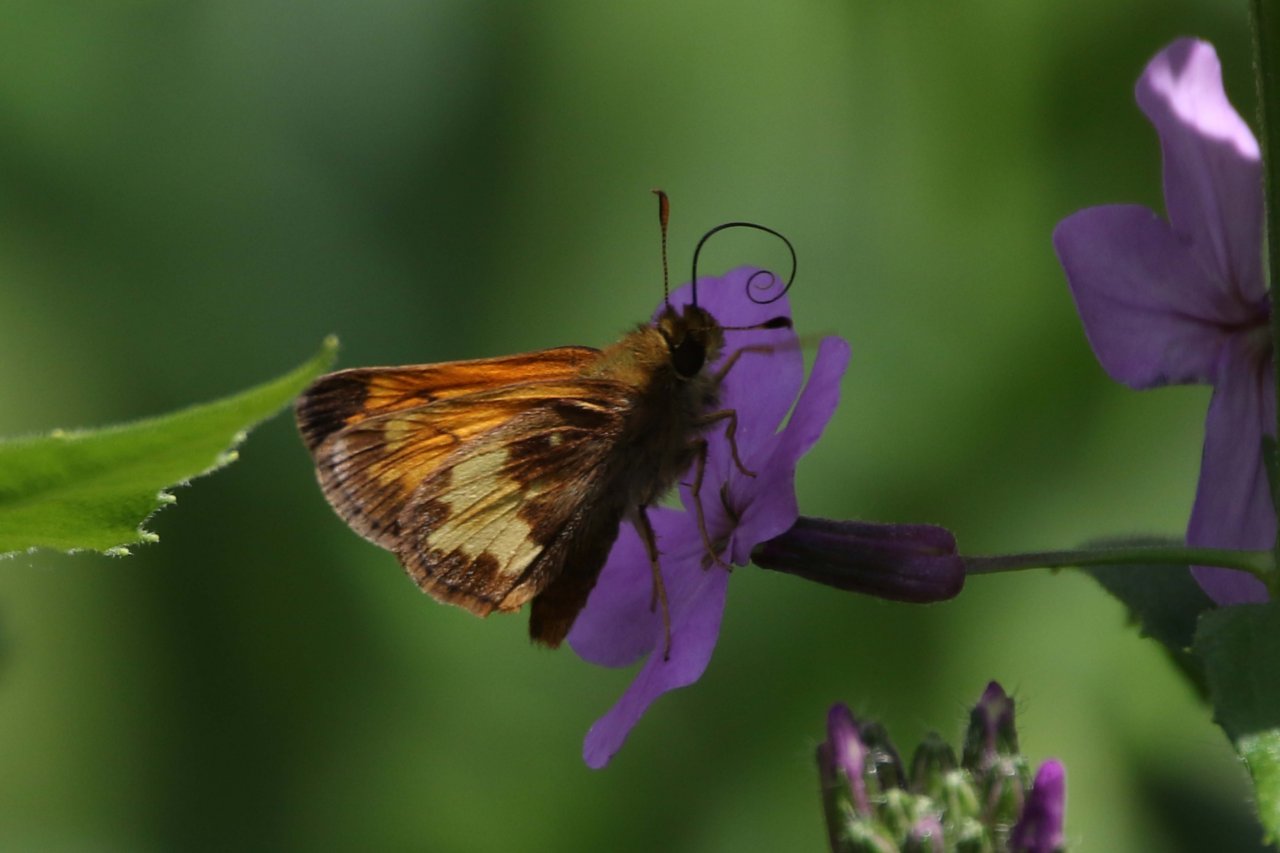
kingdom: Animalia
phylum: Arthropoda
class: Insecta
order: Lepidoptera
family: Hesperiidae
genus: Lon
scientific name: Lon hobomok
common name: Hobomok Skipper
